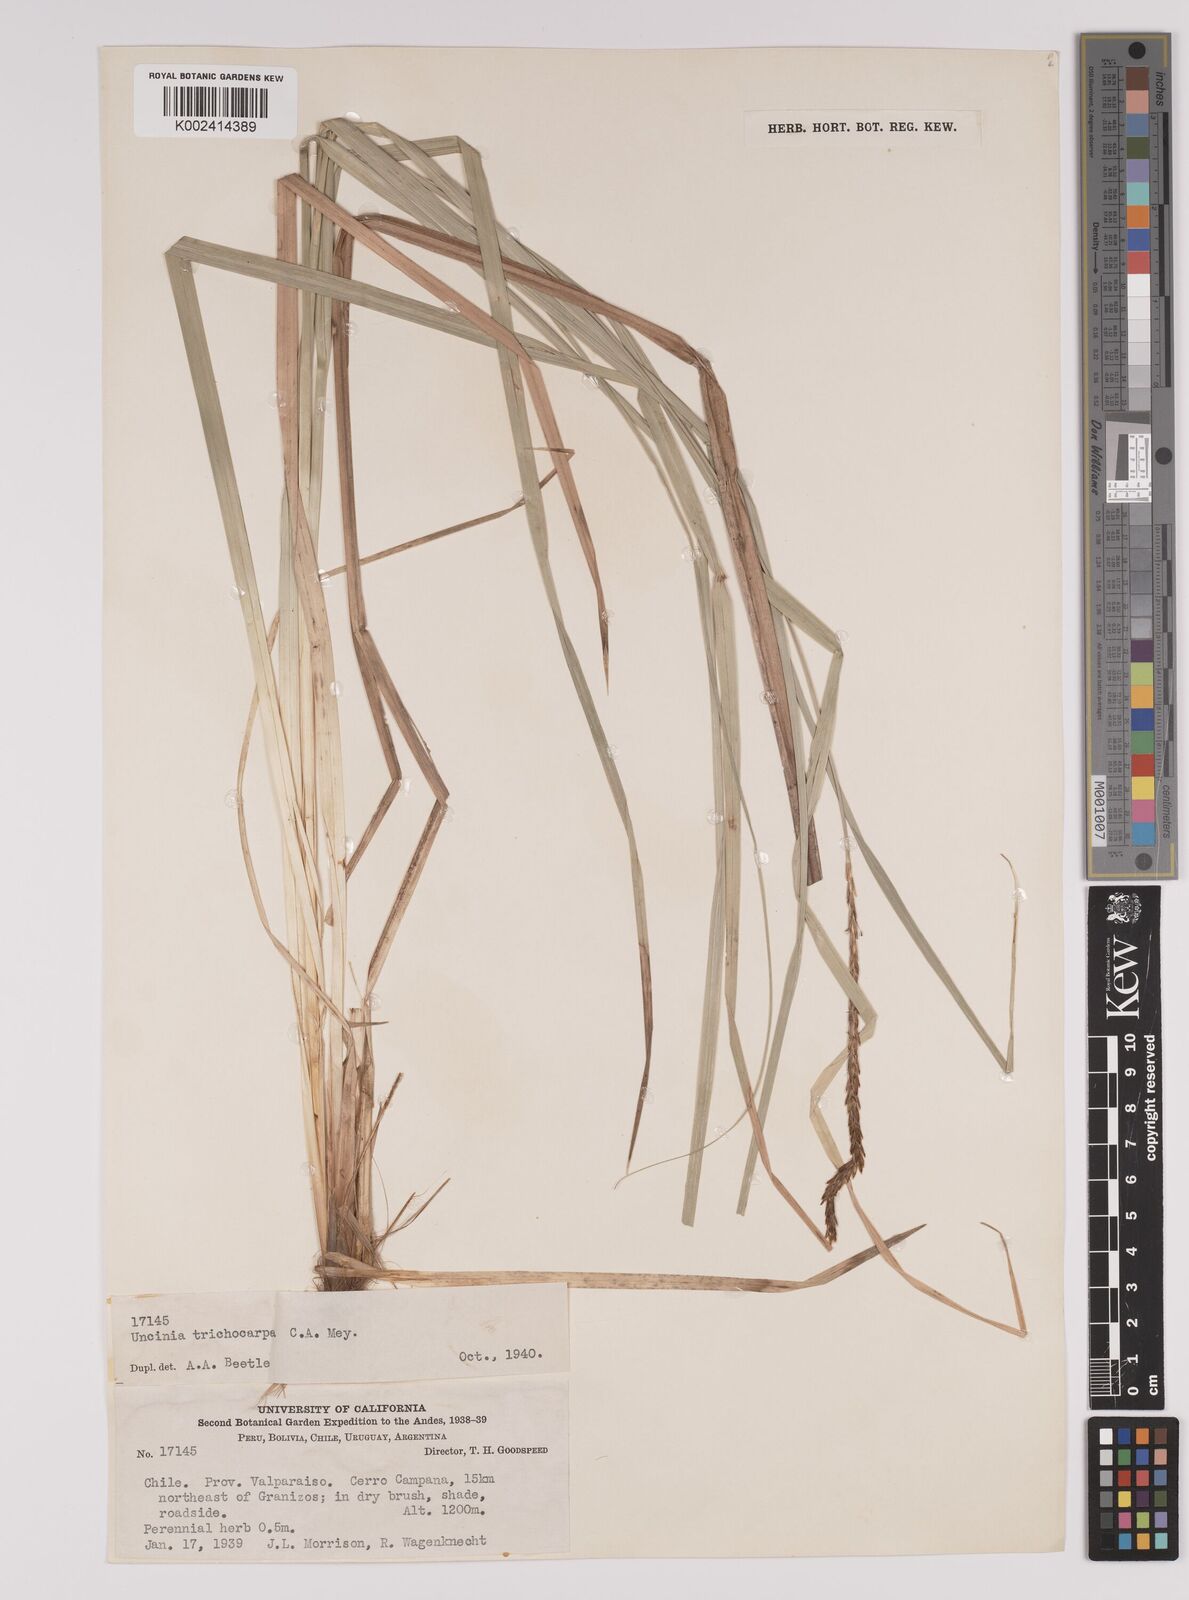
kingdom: Plantae
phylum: Tracheophyta
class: Liliopsida
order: Poales
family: Cyperaceae
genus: Carex
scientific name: Carex quinquin
